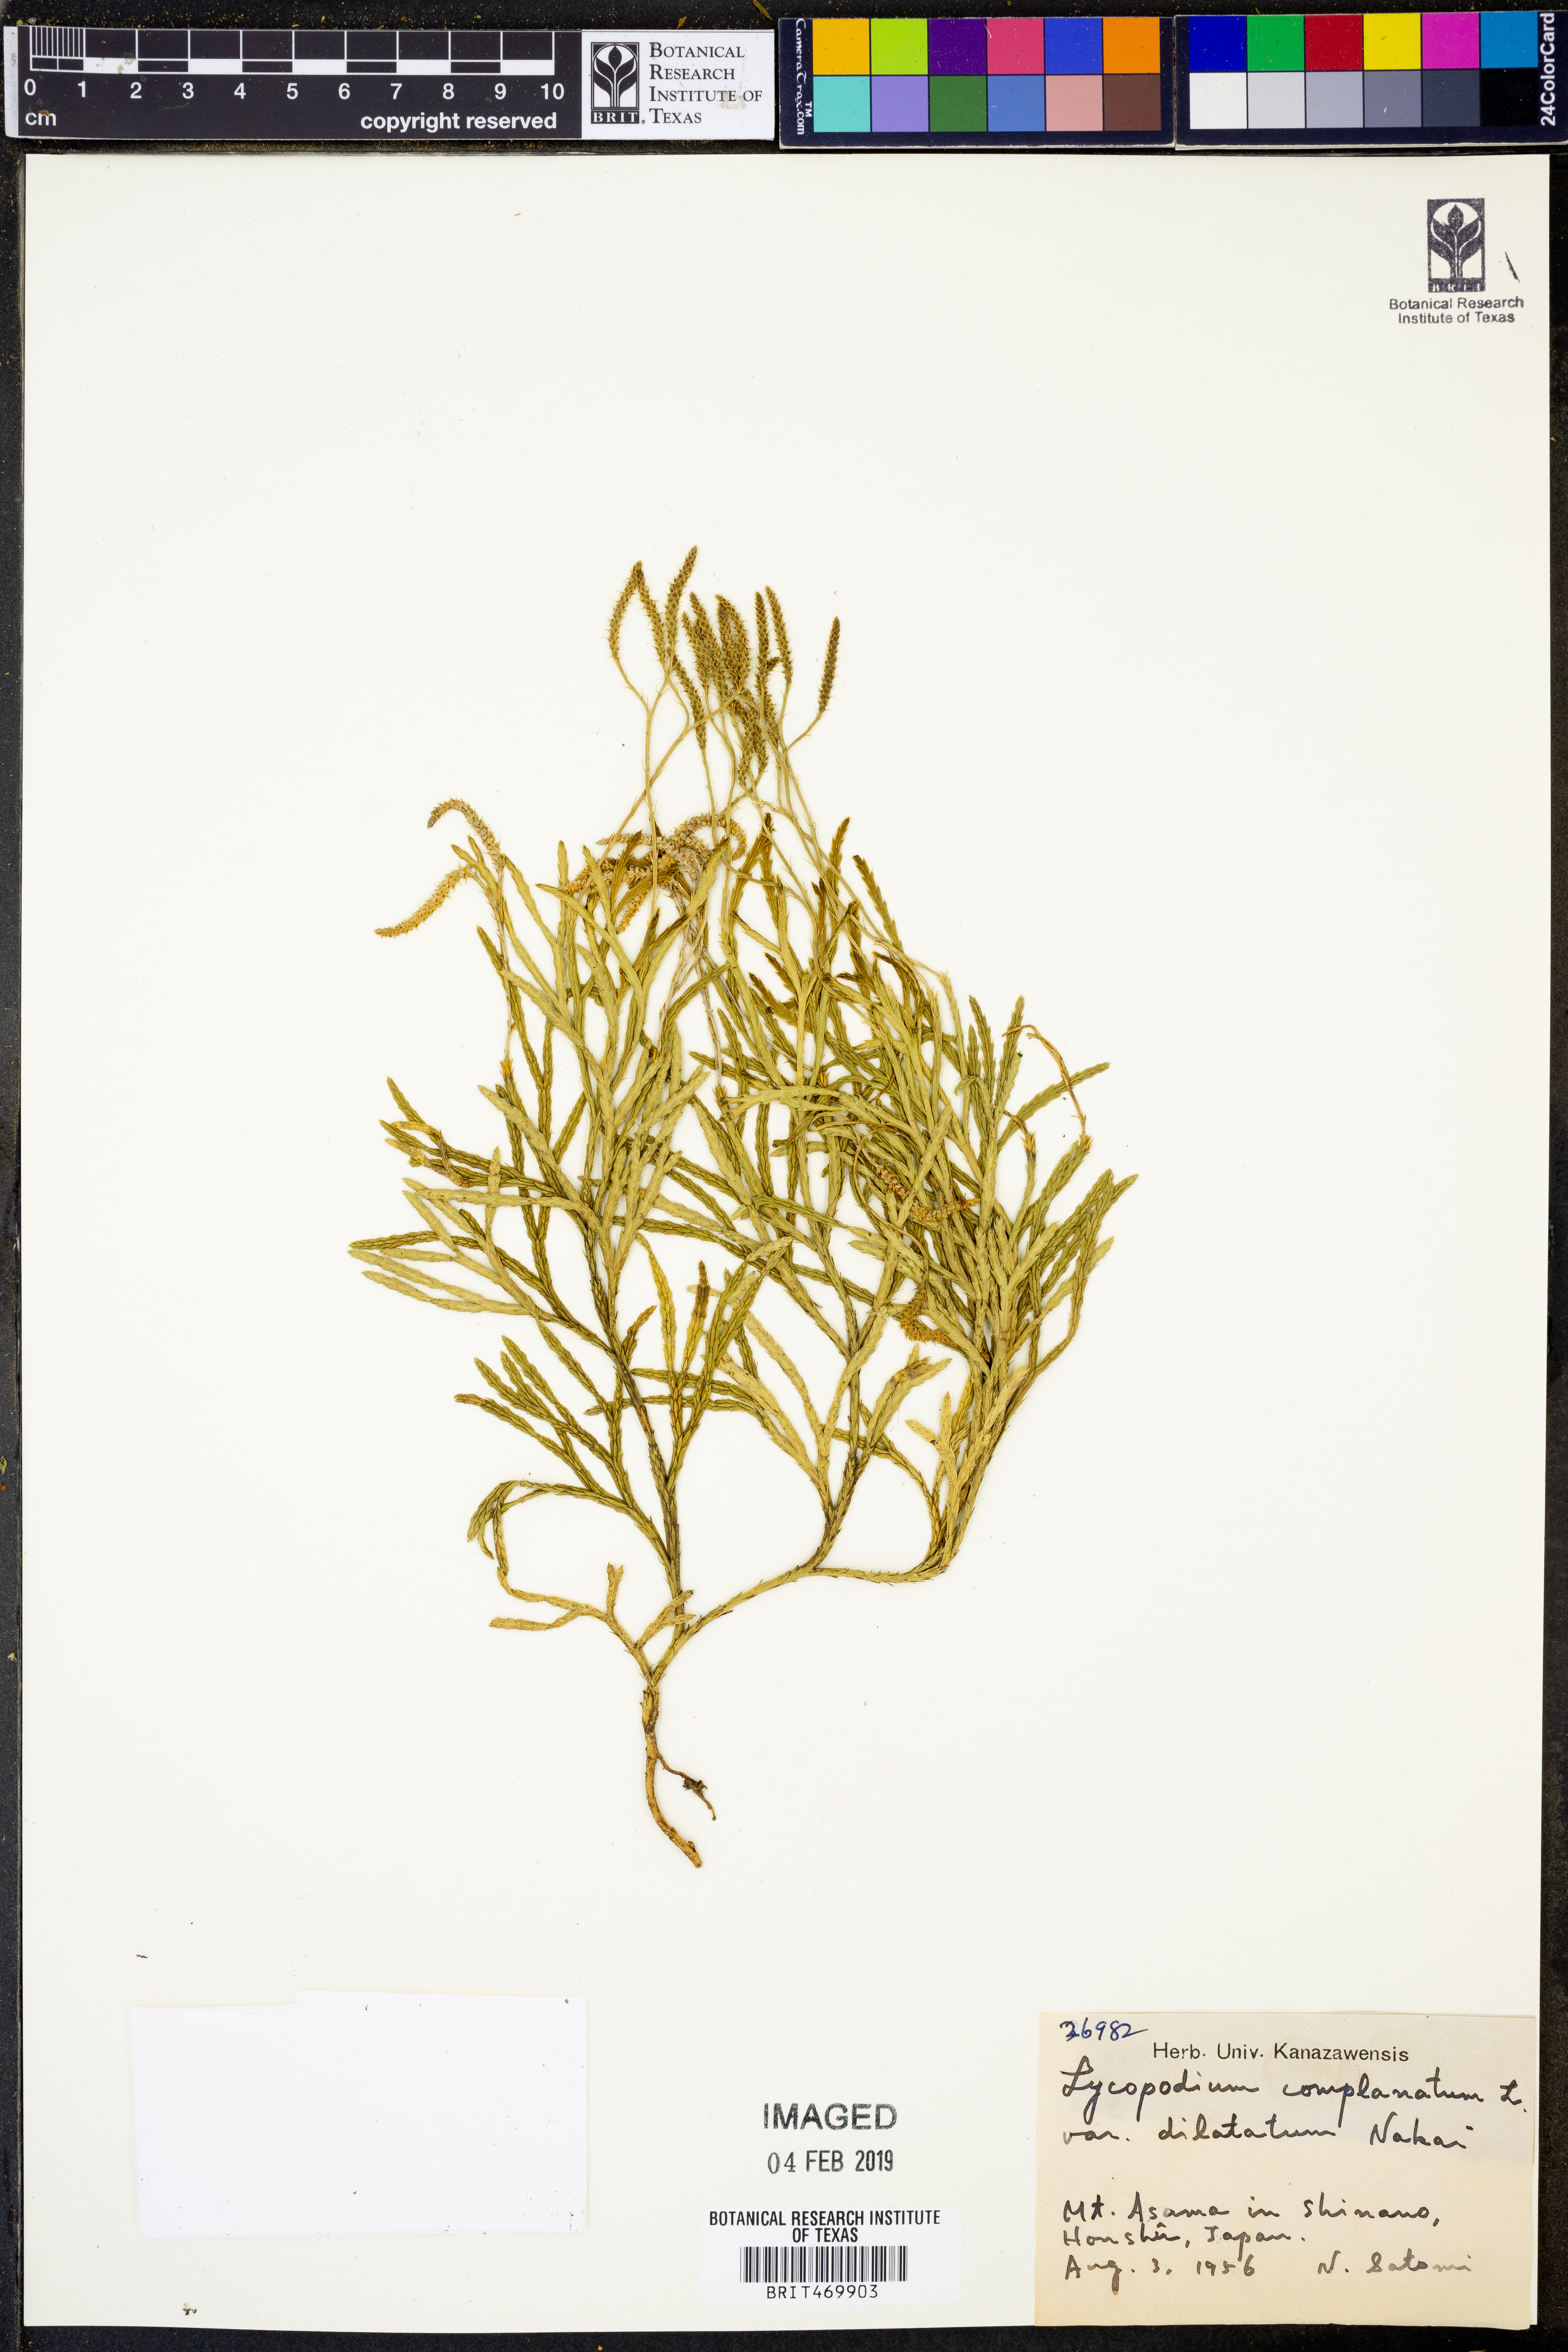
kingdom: Plantae
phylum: Tracheophyta
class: Lycopodiopsida
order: Lycopodiales
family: Lycopodiaceae
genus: Diphasiastrum
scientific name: Diphasiastrum complanatum
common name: Northern running-pine
